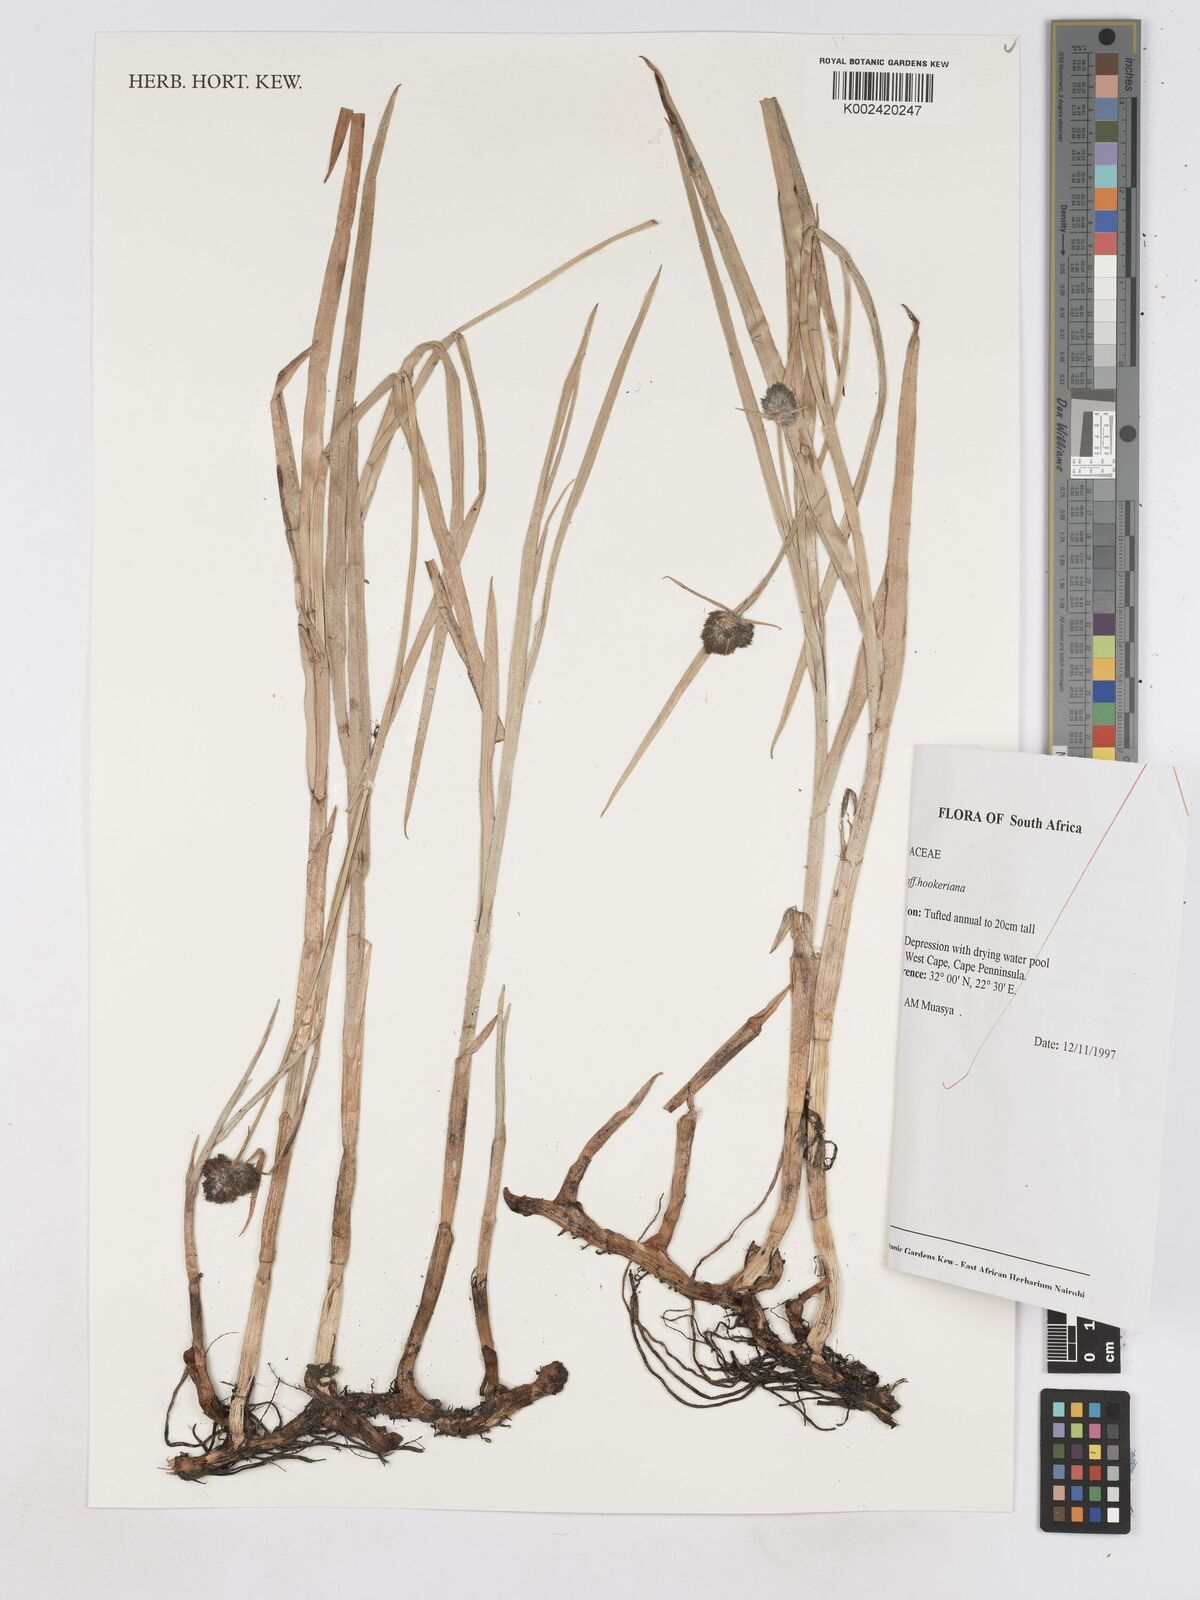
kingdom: Plantae
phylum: Tracheophyta
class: Liliopsida
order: Poales
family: Cyperaceae
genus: Fuirena
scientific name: Fuirena hirsuta
